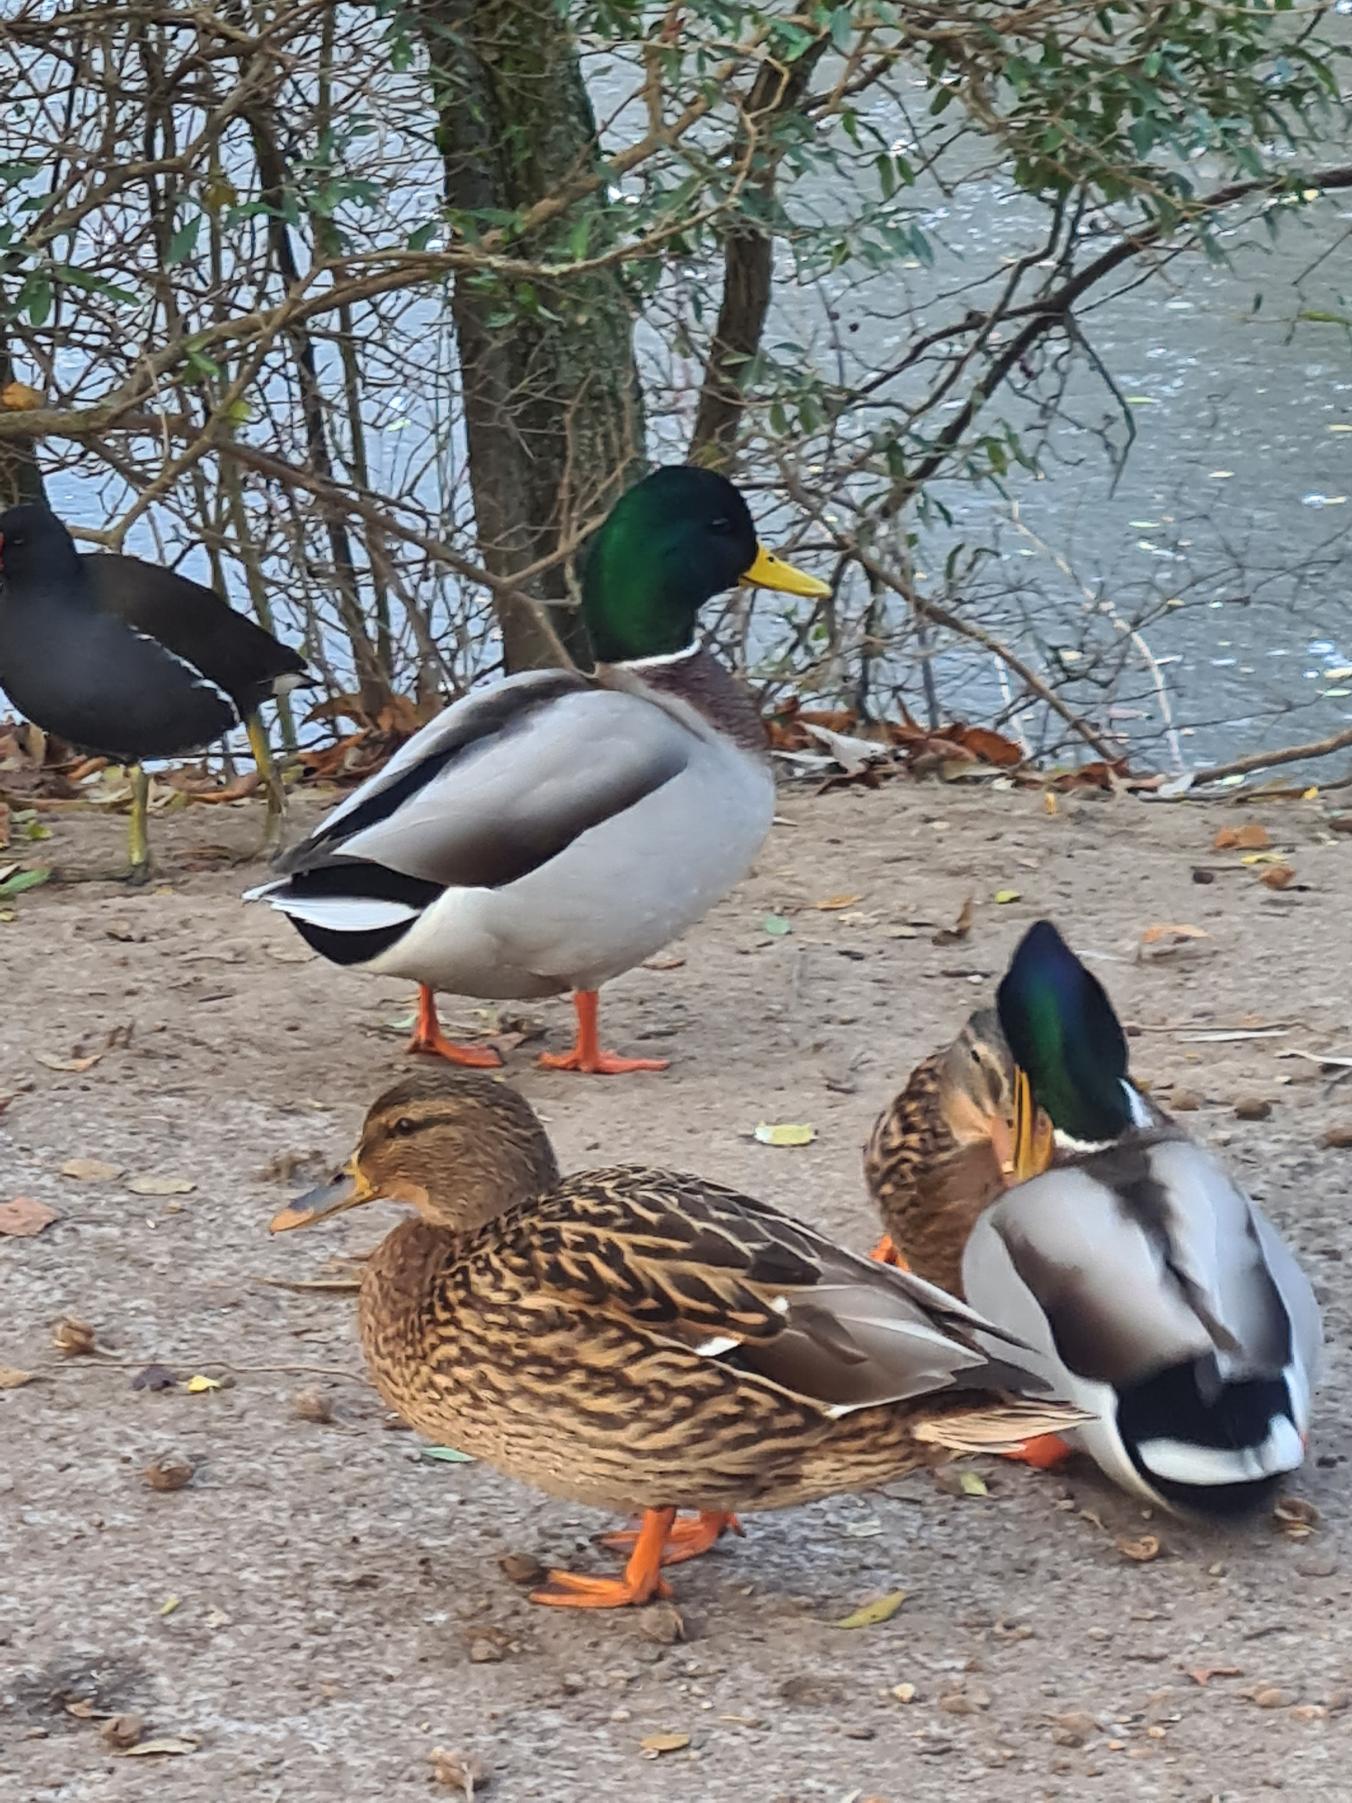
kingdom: Animalia
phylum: Chordata
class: Aves
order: Anseriformes
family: Anatidae
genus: Anas
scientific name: Anas platyrhynchos
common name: Gråand
